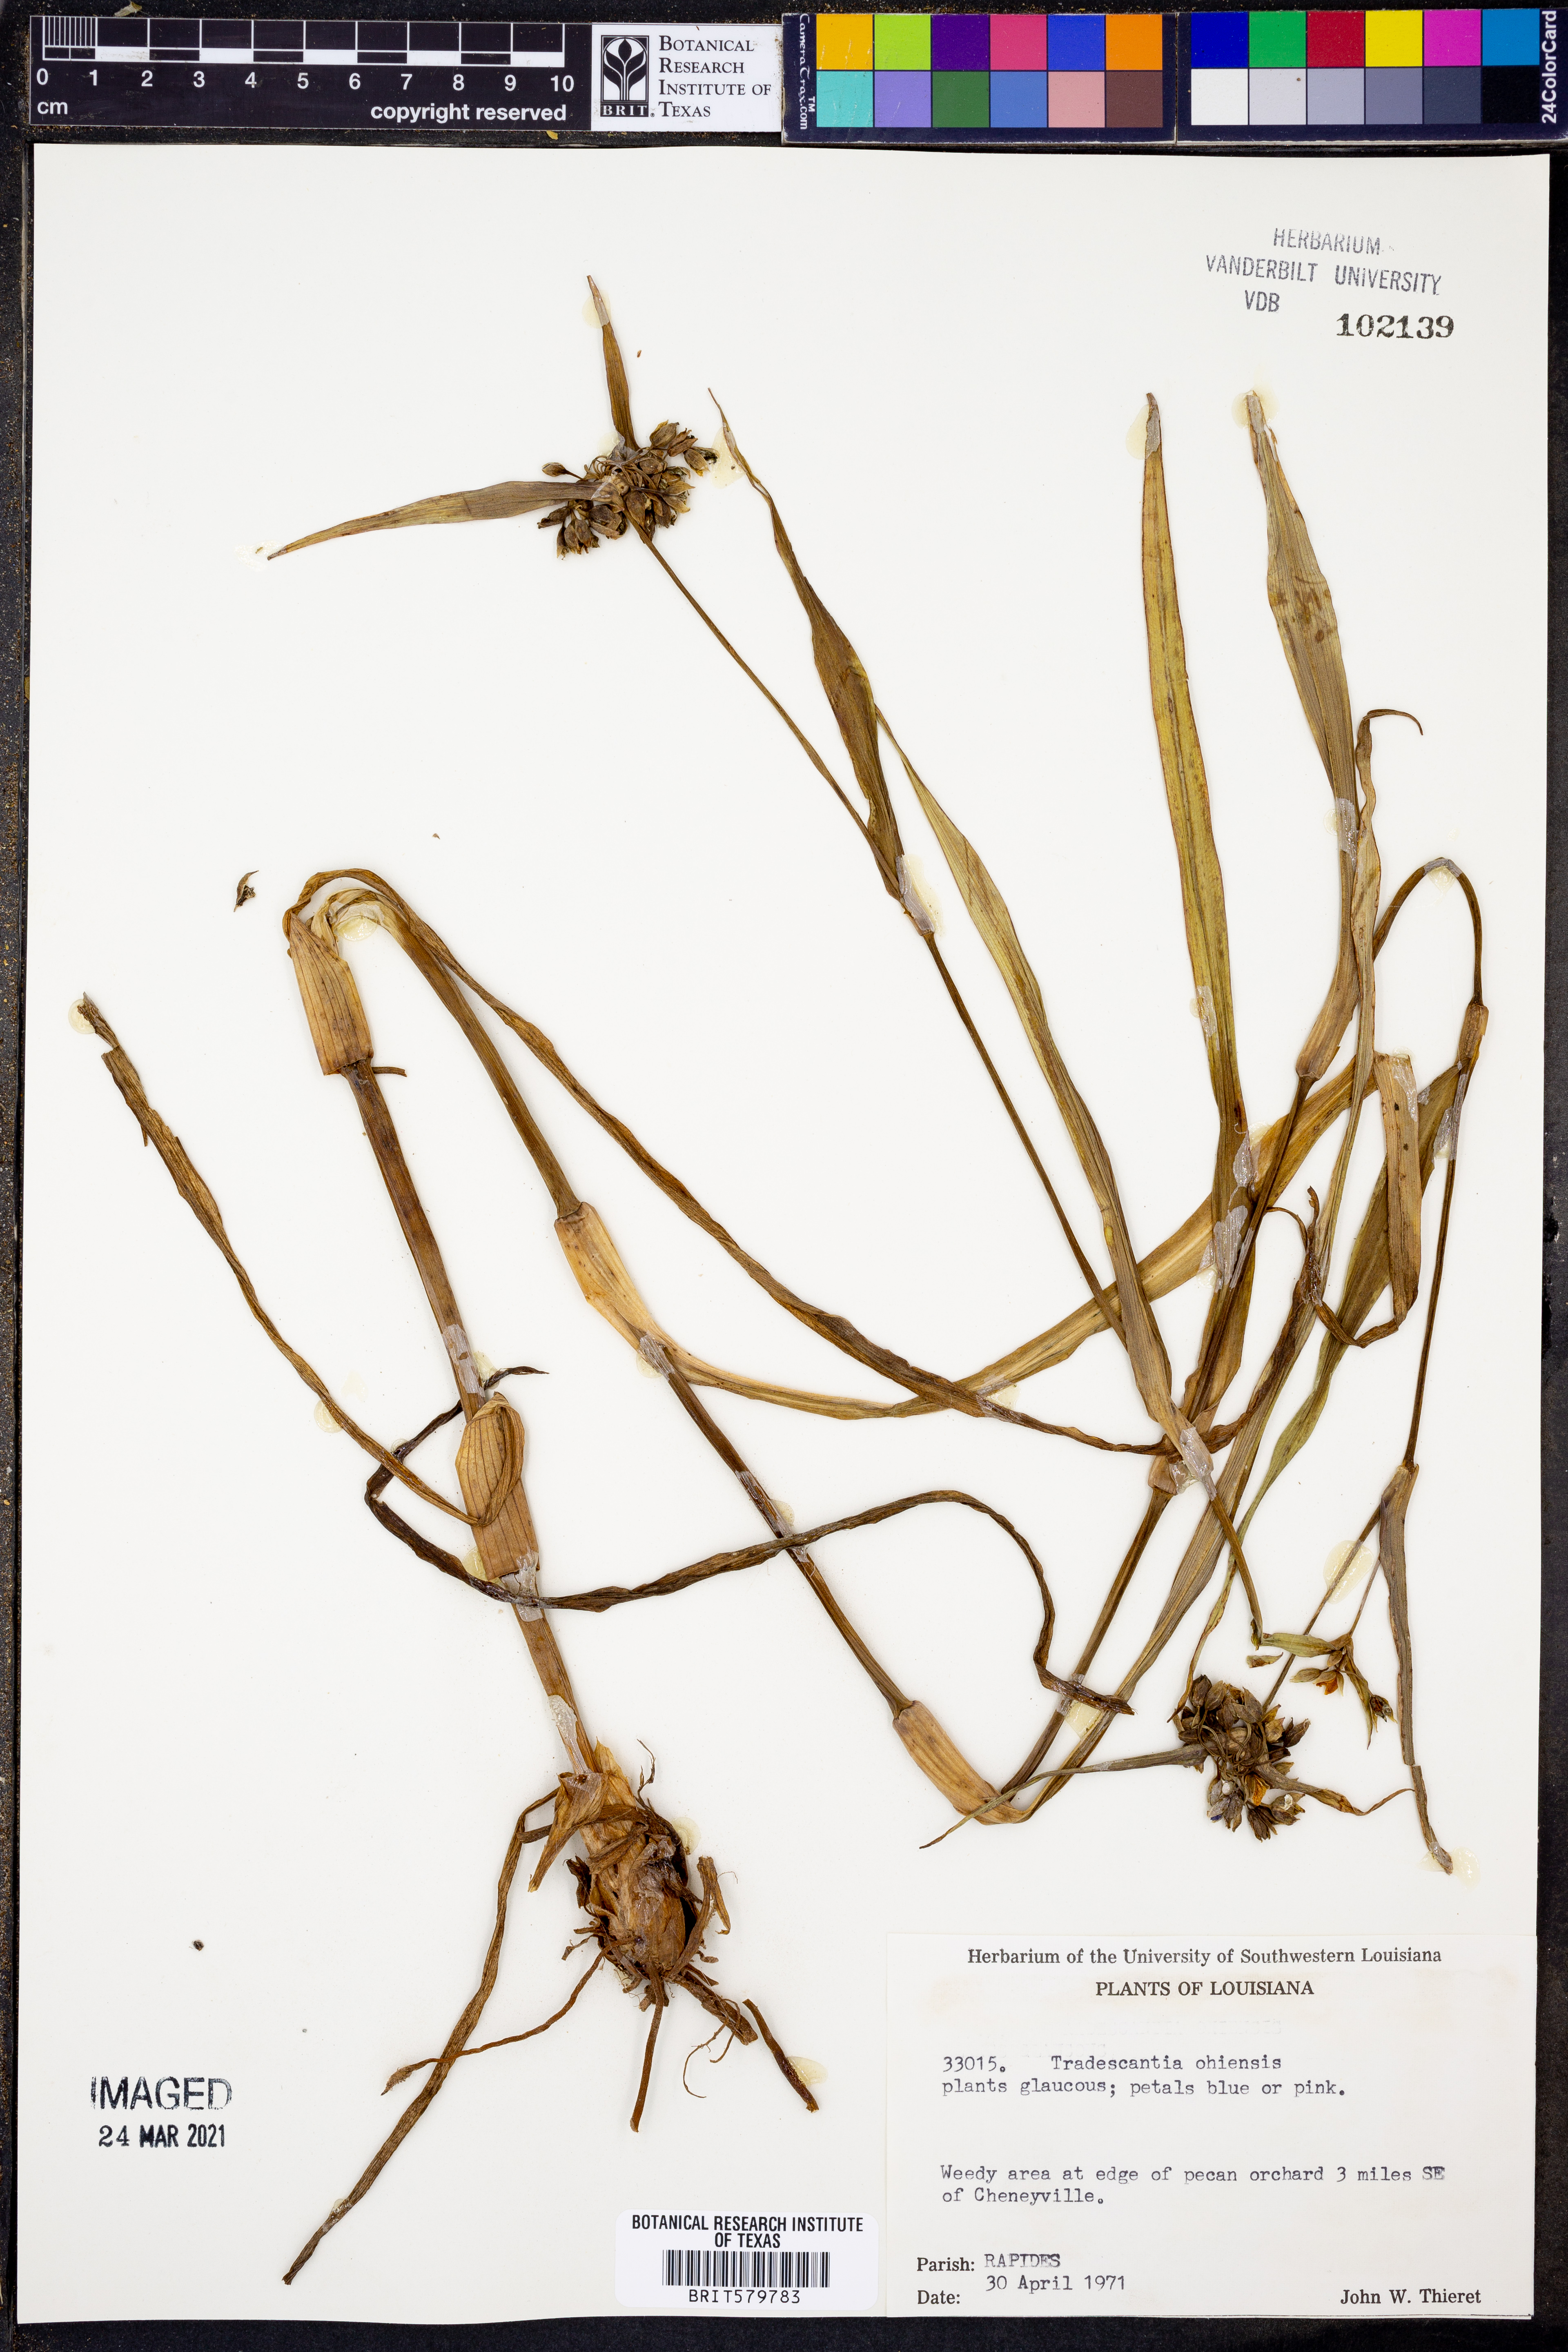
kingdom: Plantae
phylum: Tracheophyta
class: Liliopsida
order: Commelinales
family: Commelinaceae
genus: Tradescantia
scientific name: Tradescantia ohiensis
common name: Ohio spiderwort
